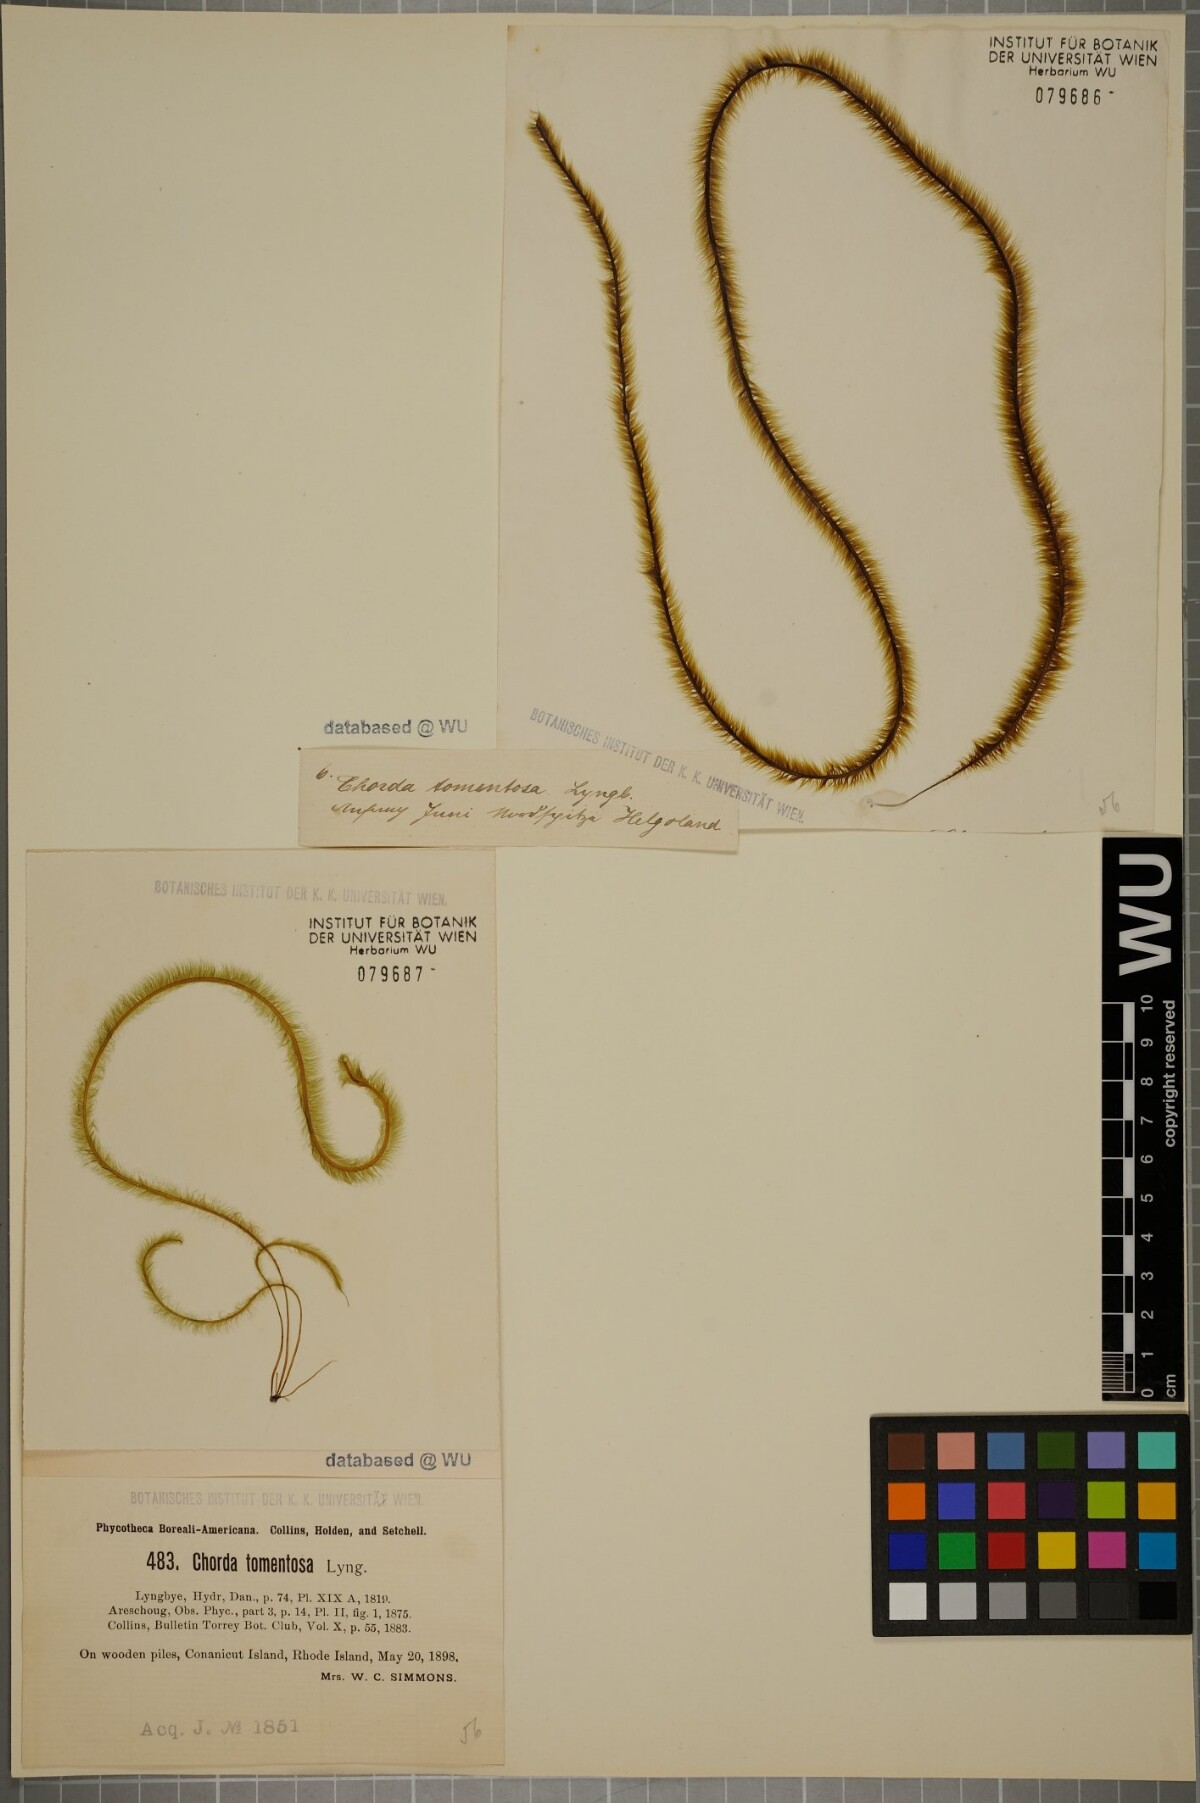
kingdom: Chromista
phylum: Ochrophyta
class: Phaeophyceae
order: Tilopteridales
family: Halosiphonaceae
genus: Halosiphon
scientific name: Halosiphon tomentosus
